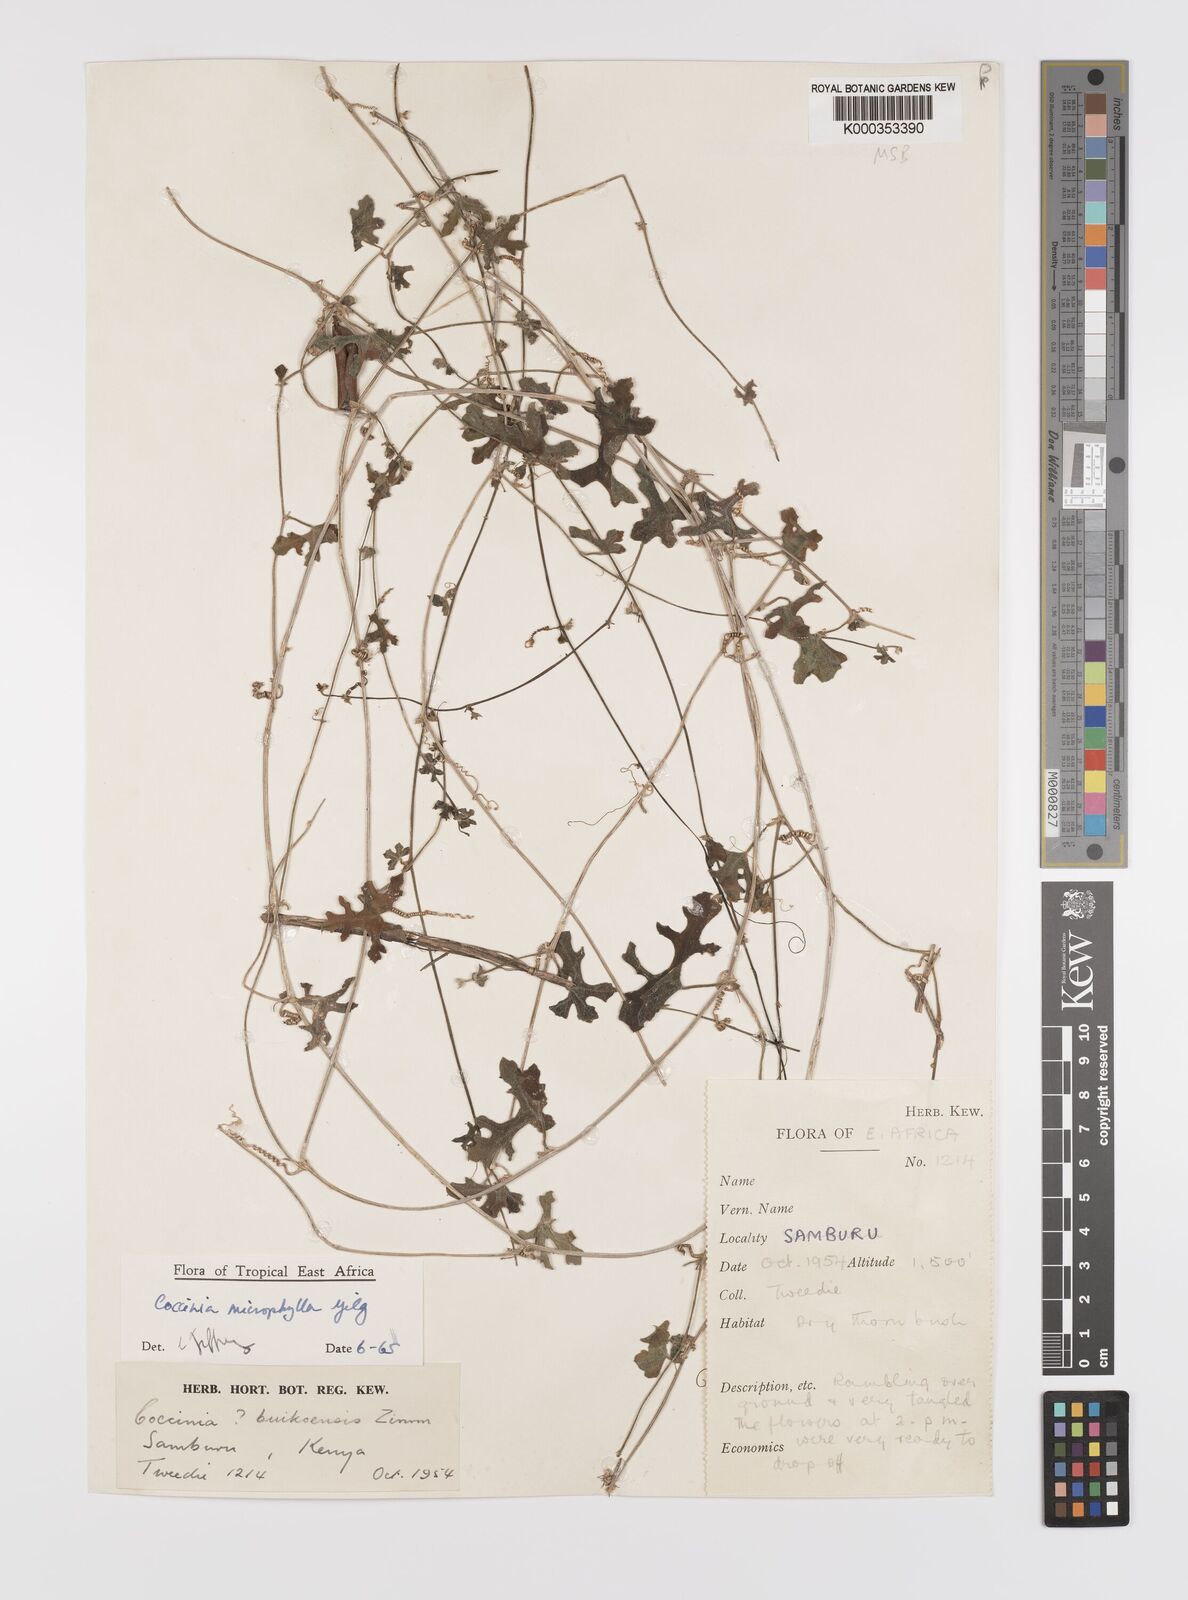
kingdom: Plantae
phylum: Tracheophyta
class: Magnoliopsida
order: Cucurbitales
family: Cucurbitaceae
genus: Coccinia
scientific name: Coccinia microphylla
